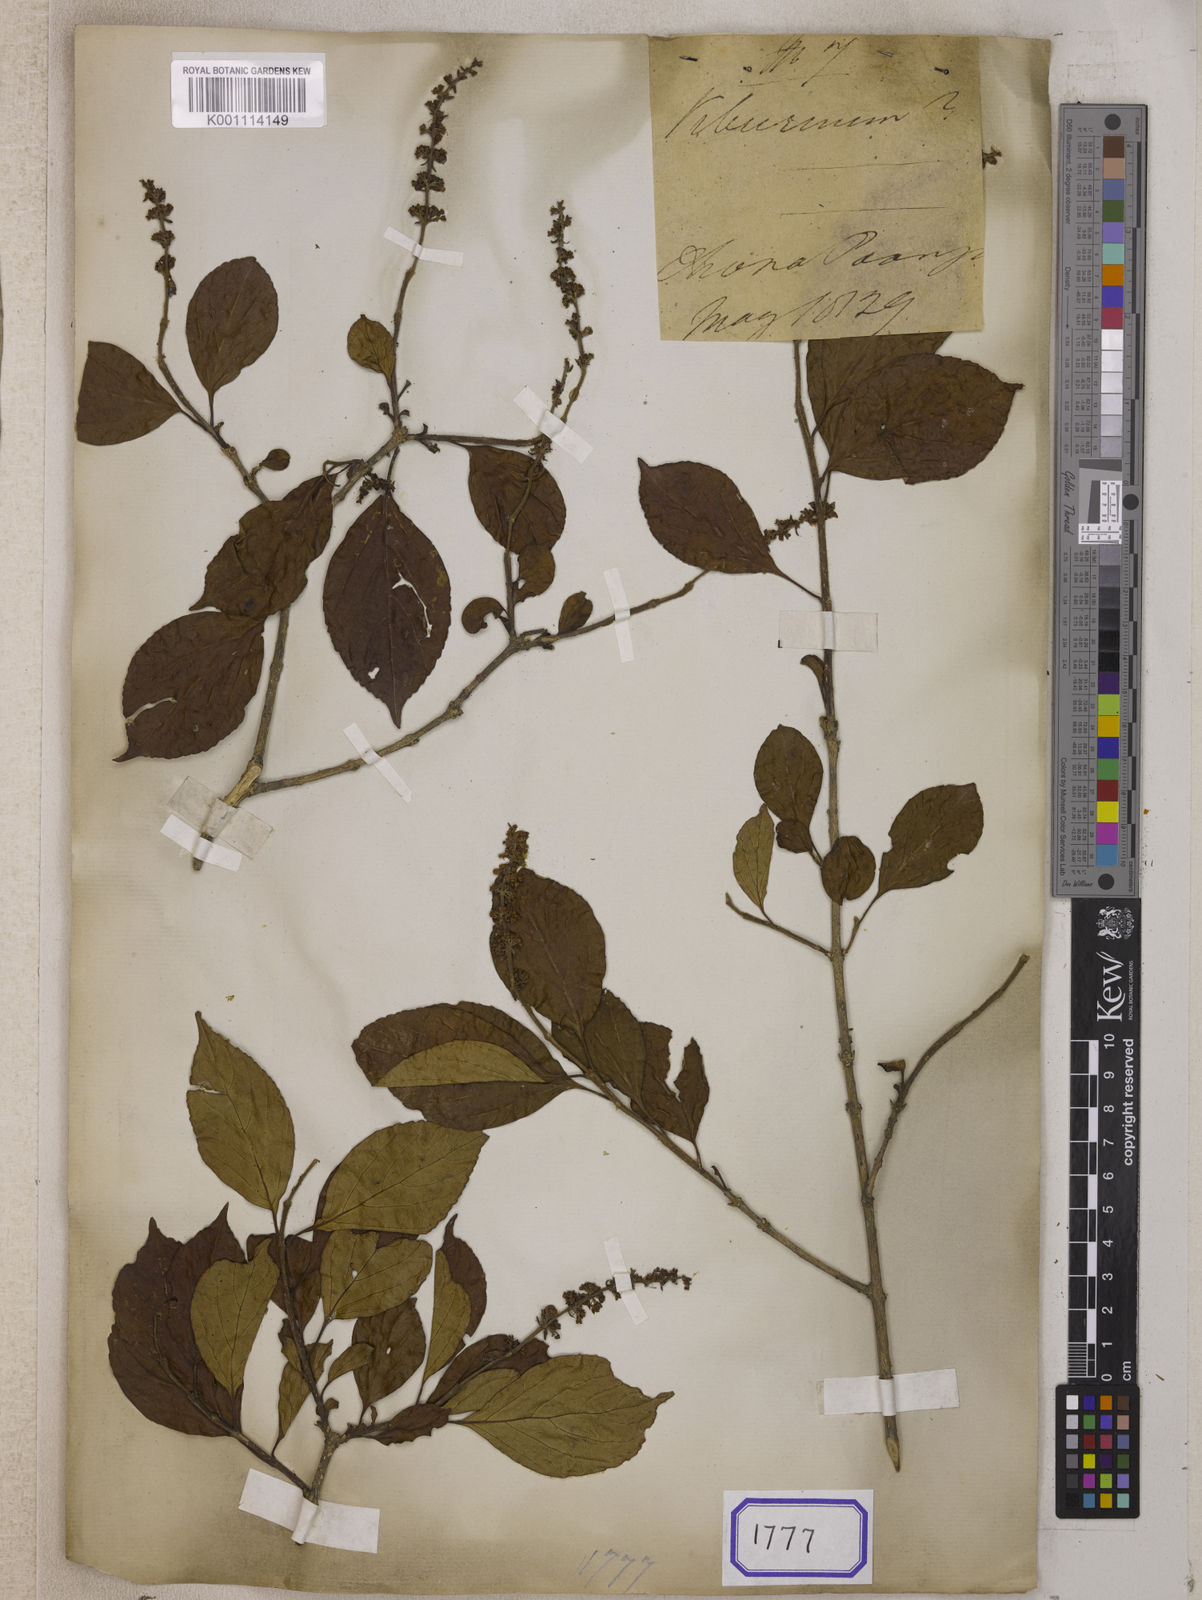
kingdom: Plantae
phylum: Tracheophyta
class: Magnoliopsida
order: Lamiales
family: Lamiaceae
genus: Premna
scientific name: Premna
